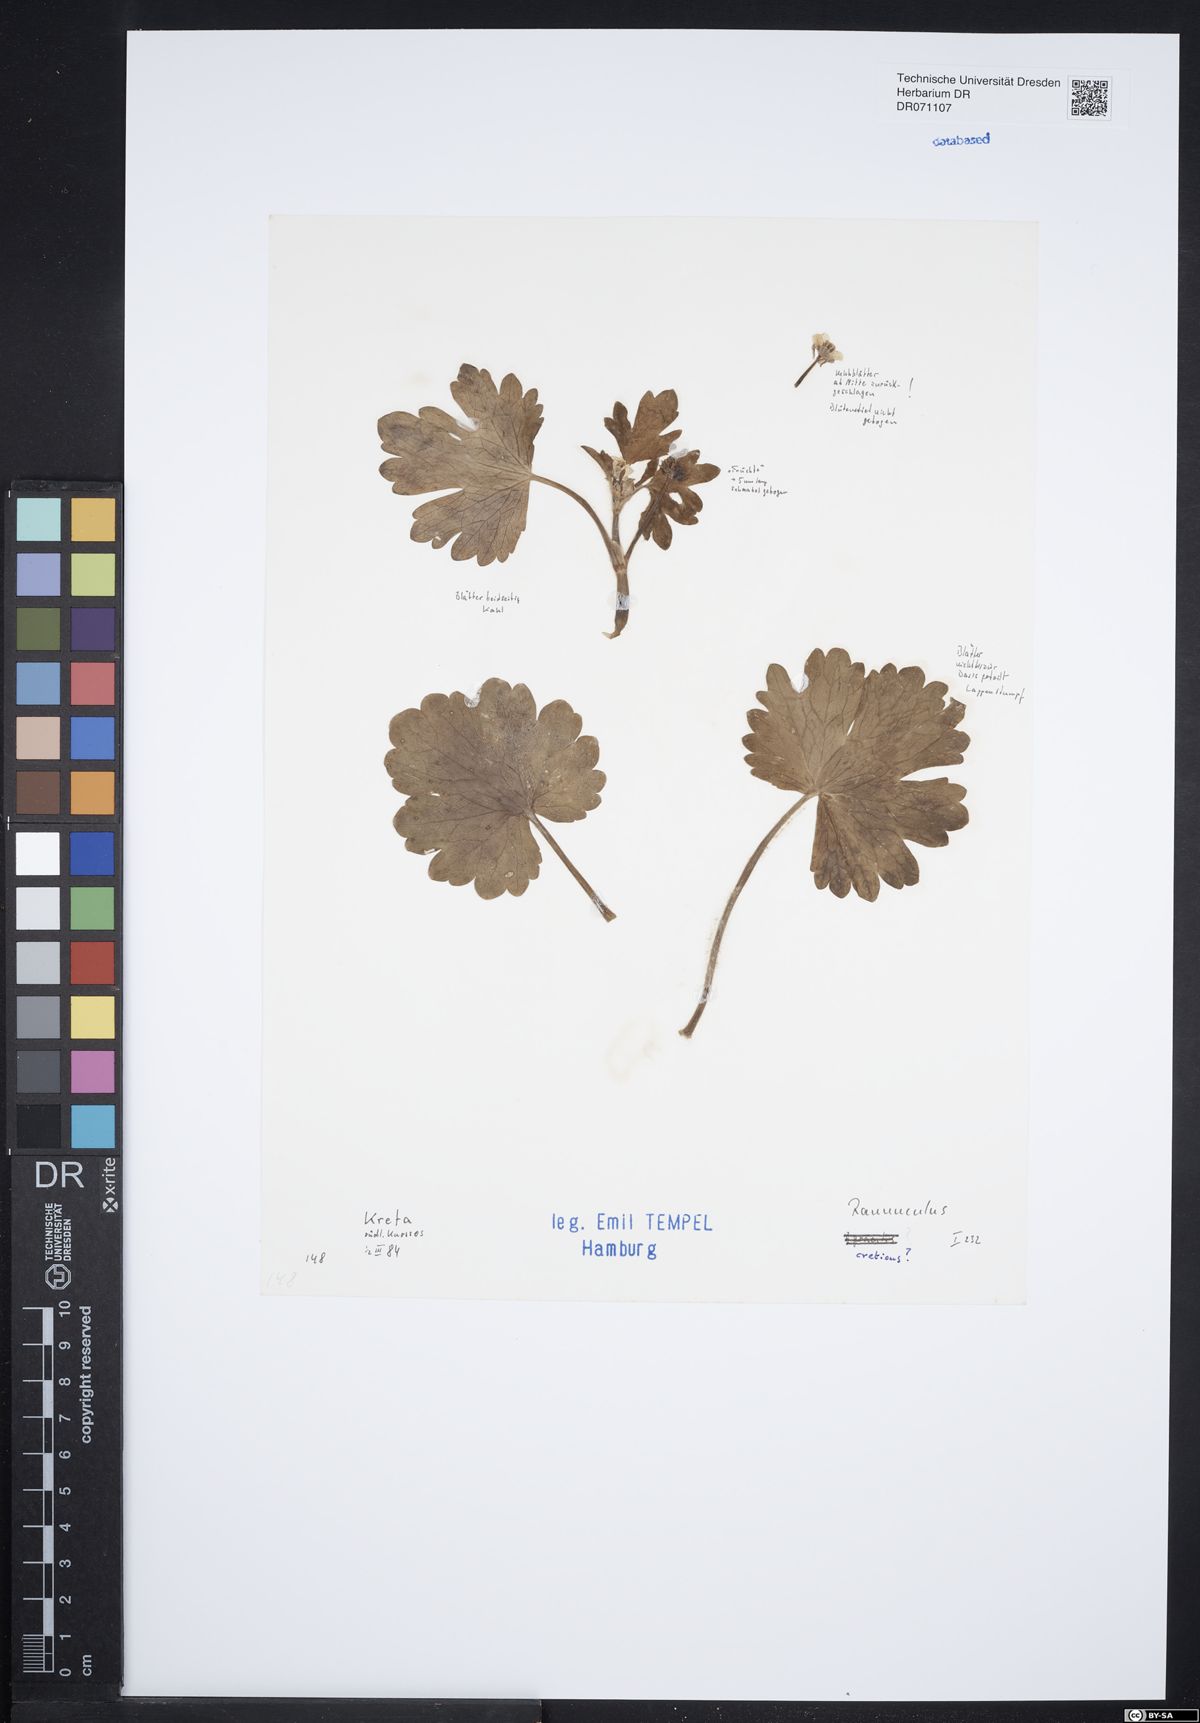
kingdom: Plantae
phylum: Tracheophyta
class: Magnoliopsida
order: Lamiales
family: Lamiaceae
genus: Stachys
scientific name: Stachys mucronata
